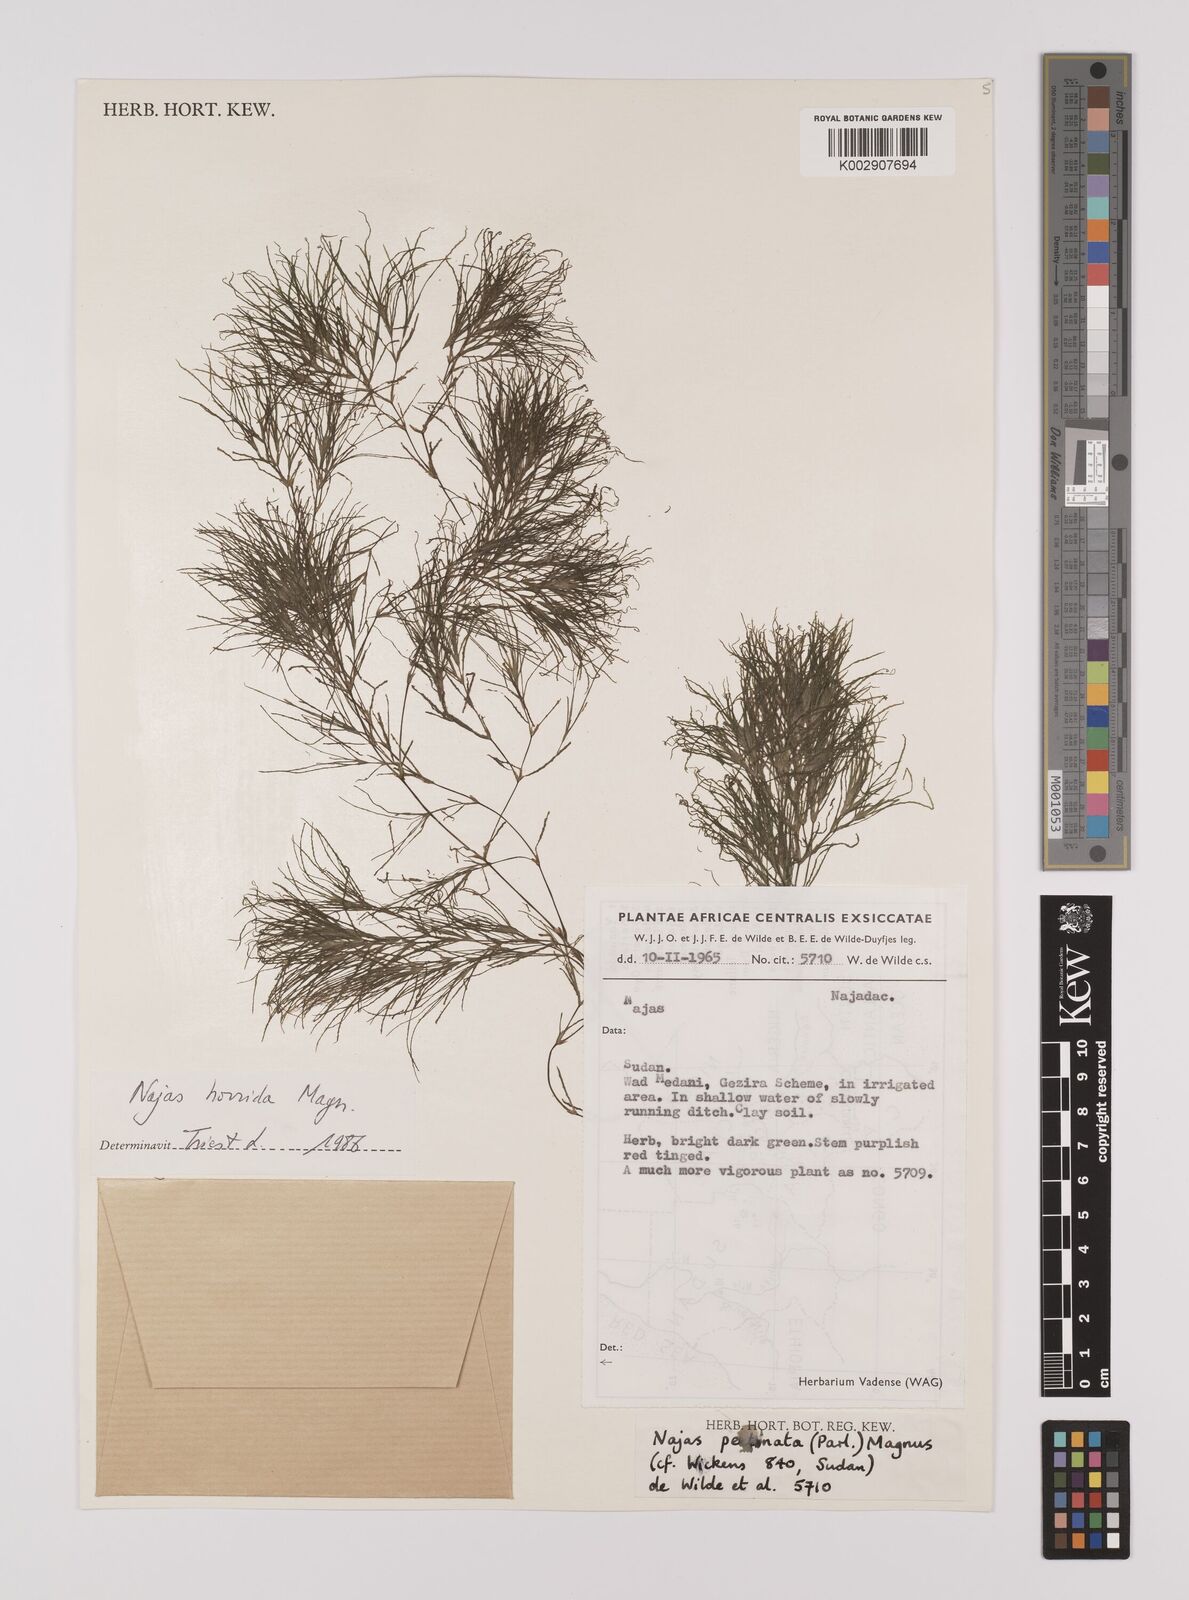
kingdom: Plantae
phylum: Tracheophyta
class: Liliopsida
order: Alismatales
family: Hydrocharitaceae
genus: Najas
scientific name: Najas horrida
